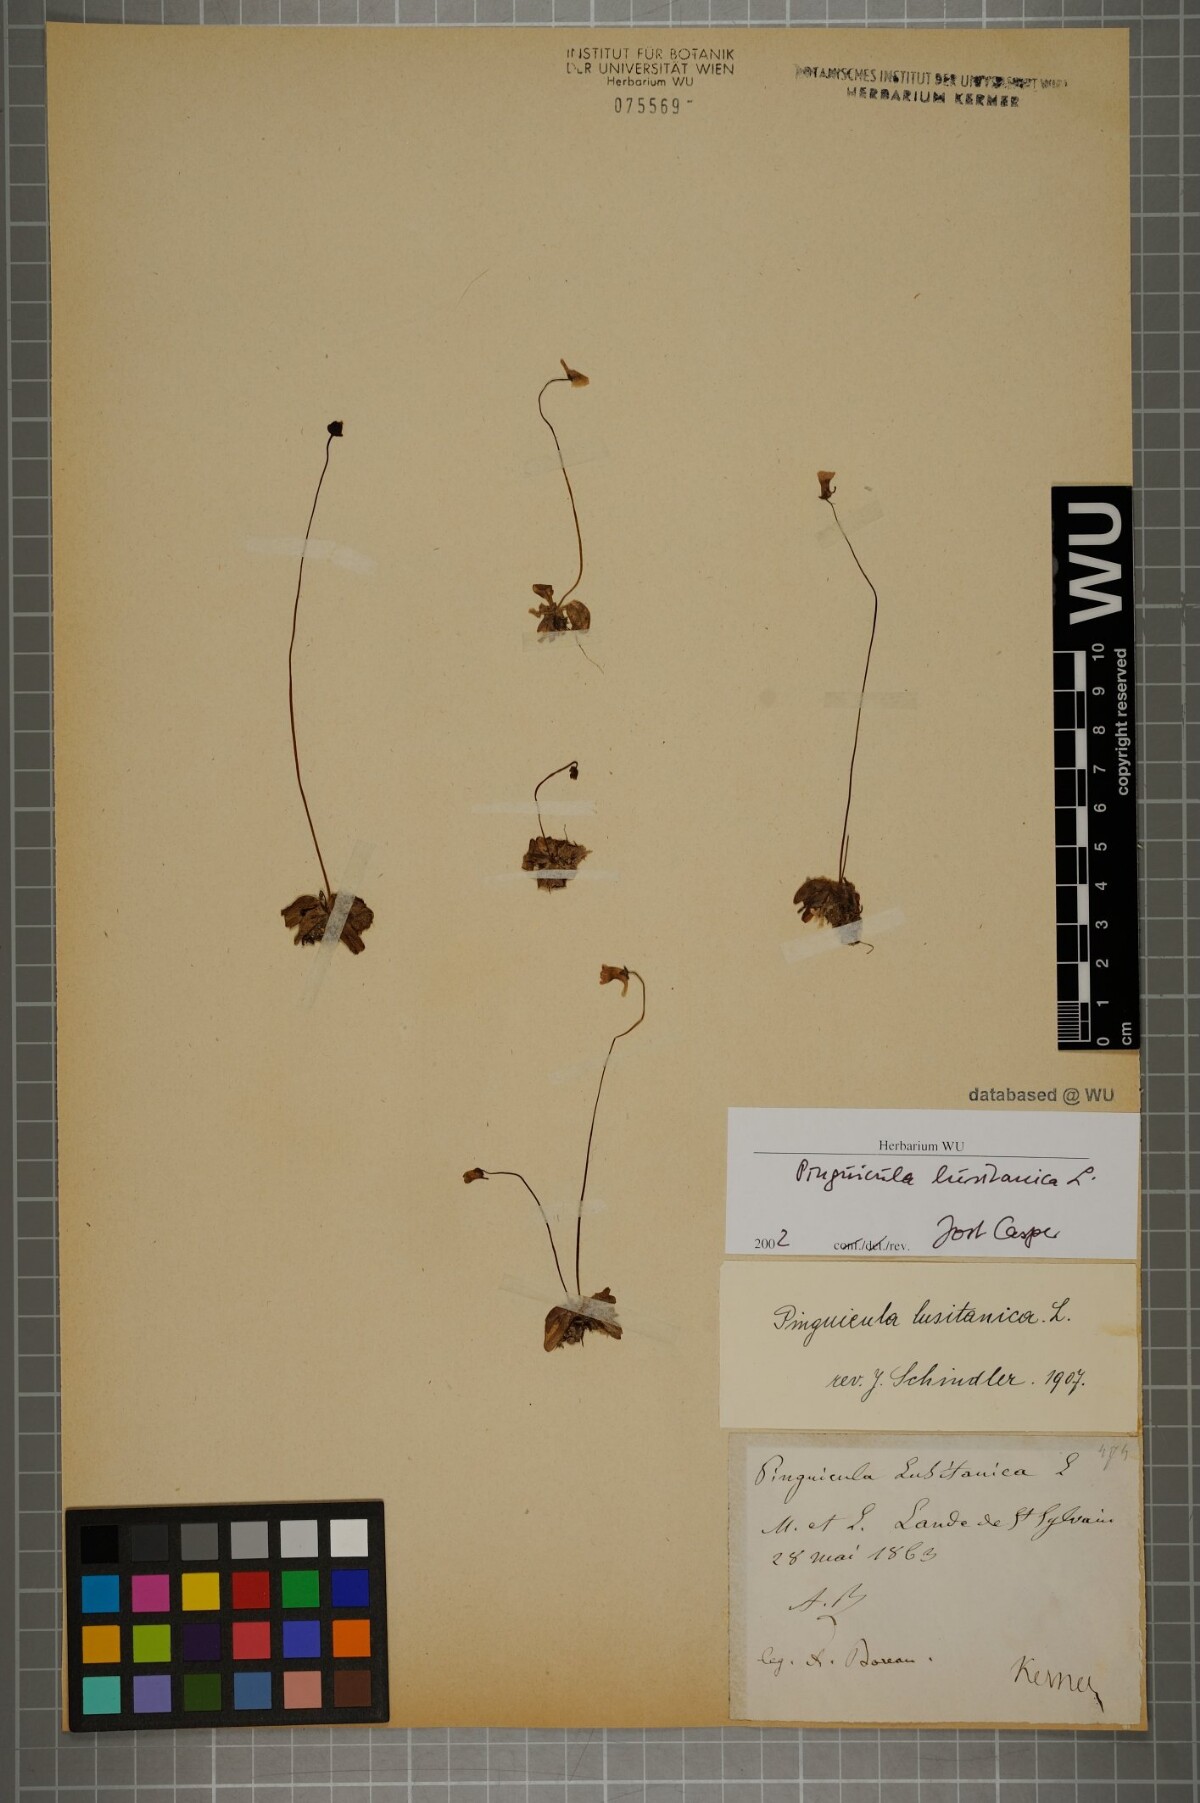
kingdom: Plantae
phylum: Tracheophyta
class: Magnoliopsida
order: Lamiales
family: Lentibulariaceae
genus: Pinguicula
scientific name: Pinguicula lusitanica
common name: Pale butterwort
